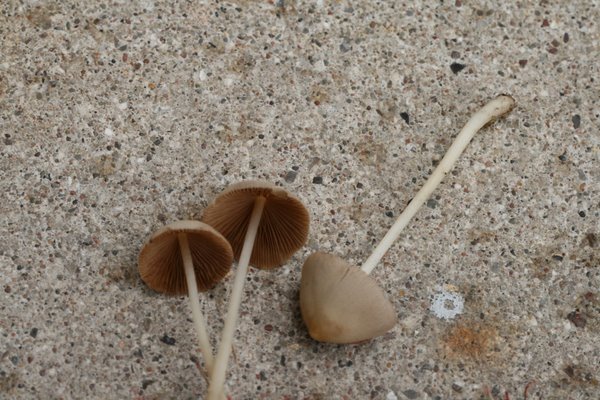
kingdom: Fungi
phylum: Basidiomycota
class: Agaricomycetes
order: Agaricales
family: Bolbitiaceae
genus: Conocybe
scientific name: Conocybe apala
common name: mælkehvid keglehat
